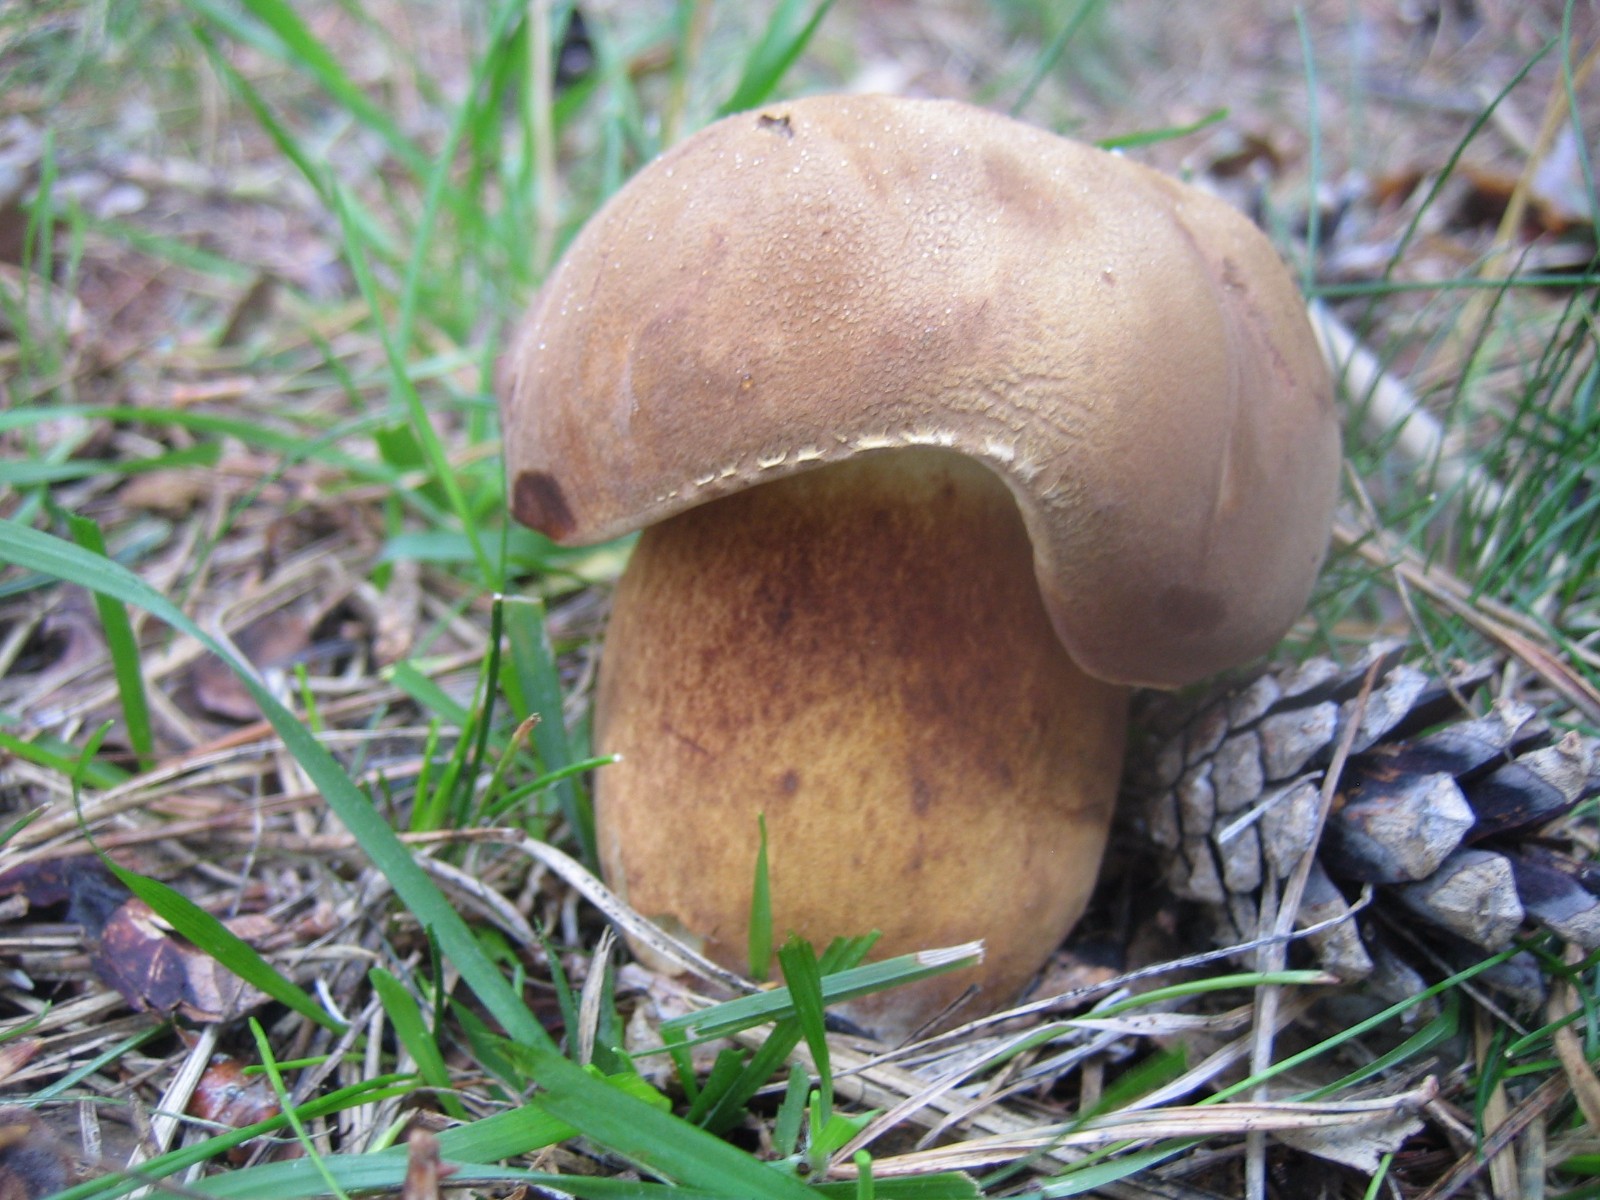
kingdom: Fungi
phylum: Basidiomycota
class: Agaricomycetes
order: Boletales
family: Boletaceae
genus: Imleria
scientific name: Imleria badia
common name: brunstokket rørhat
